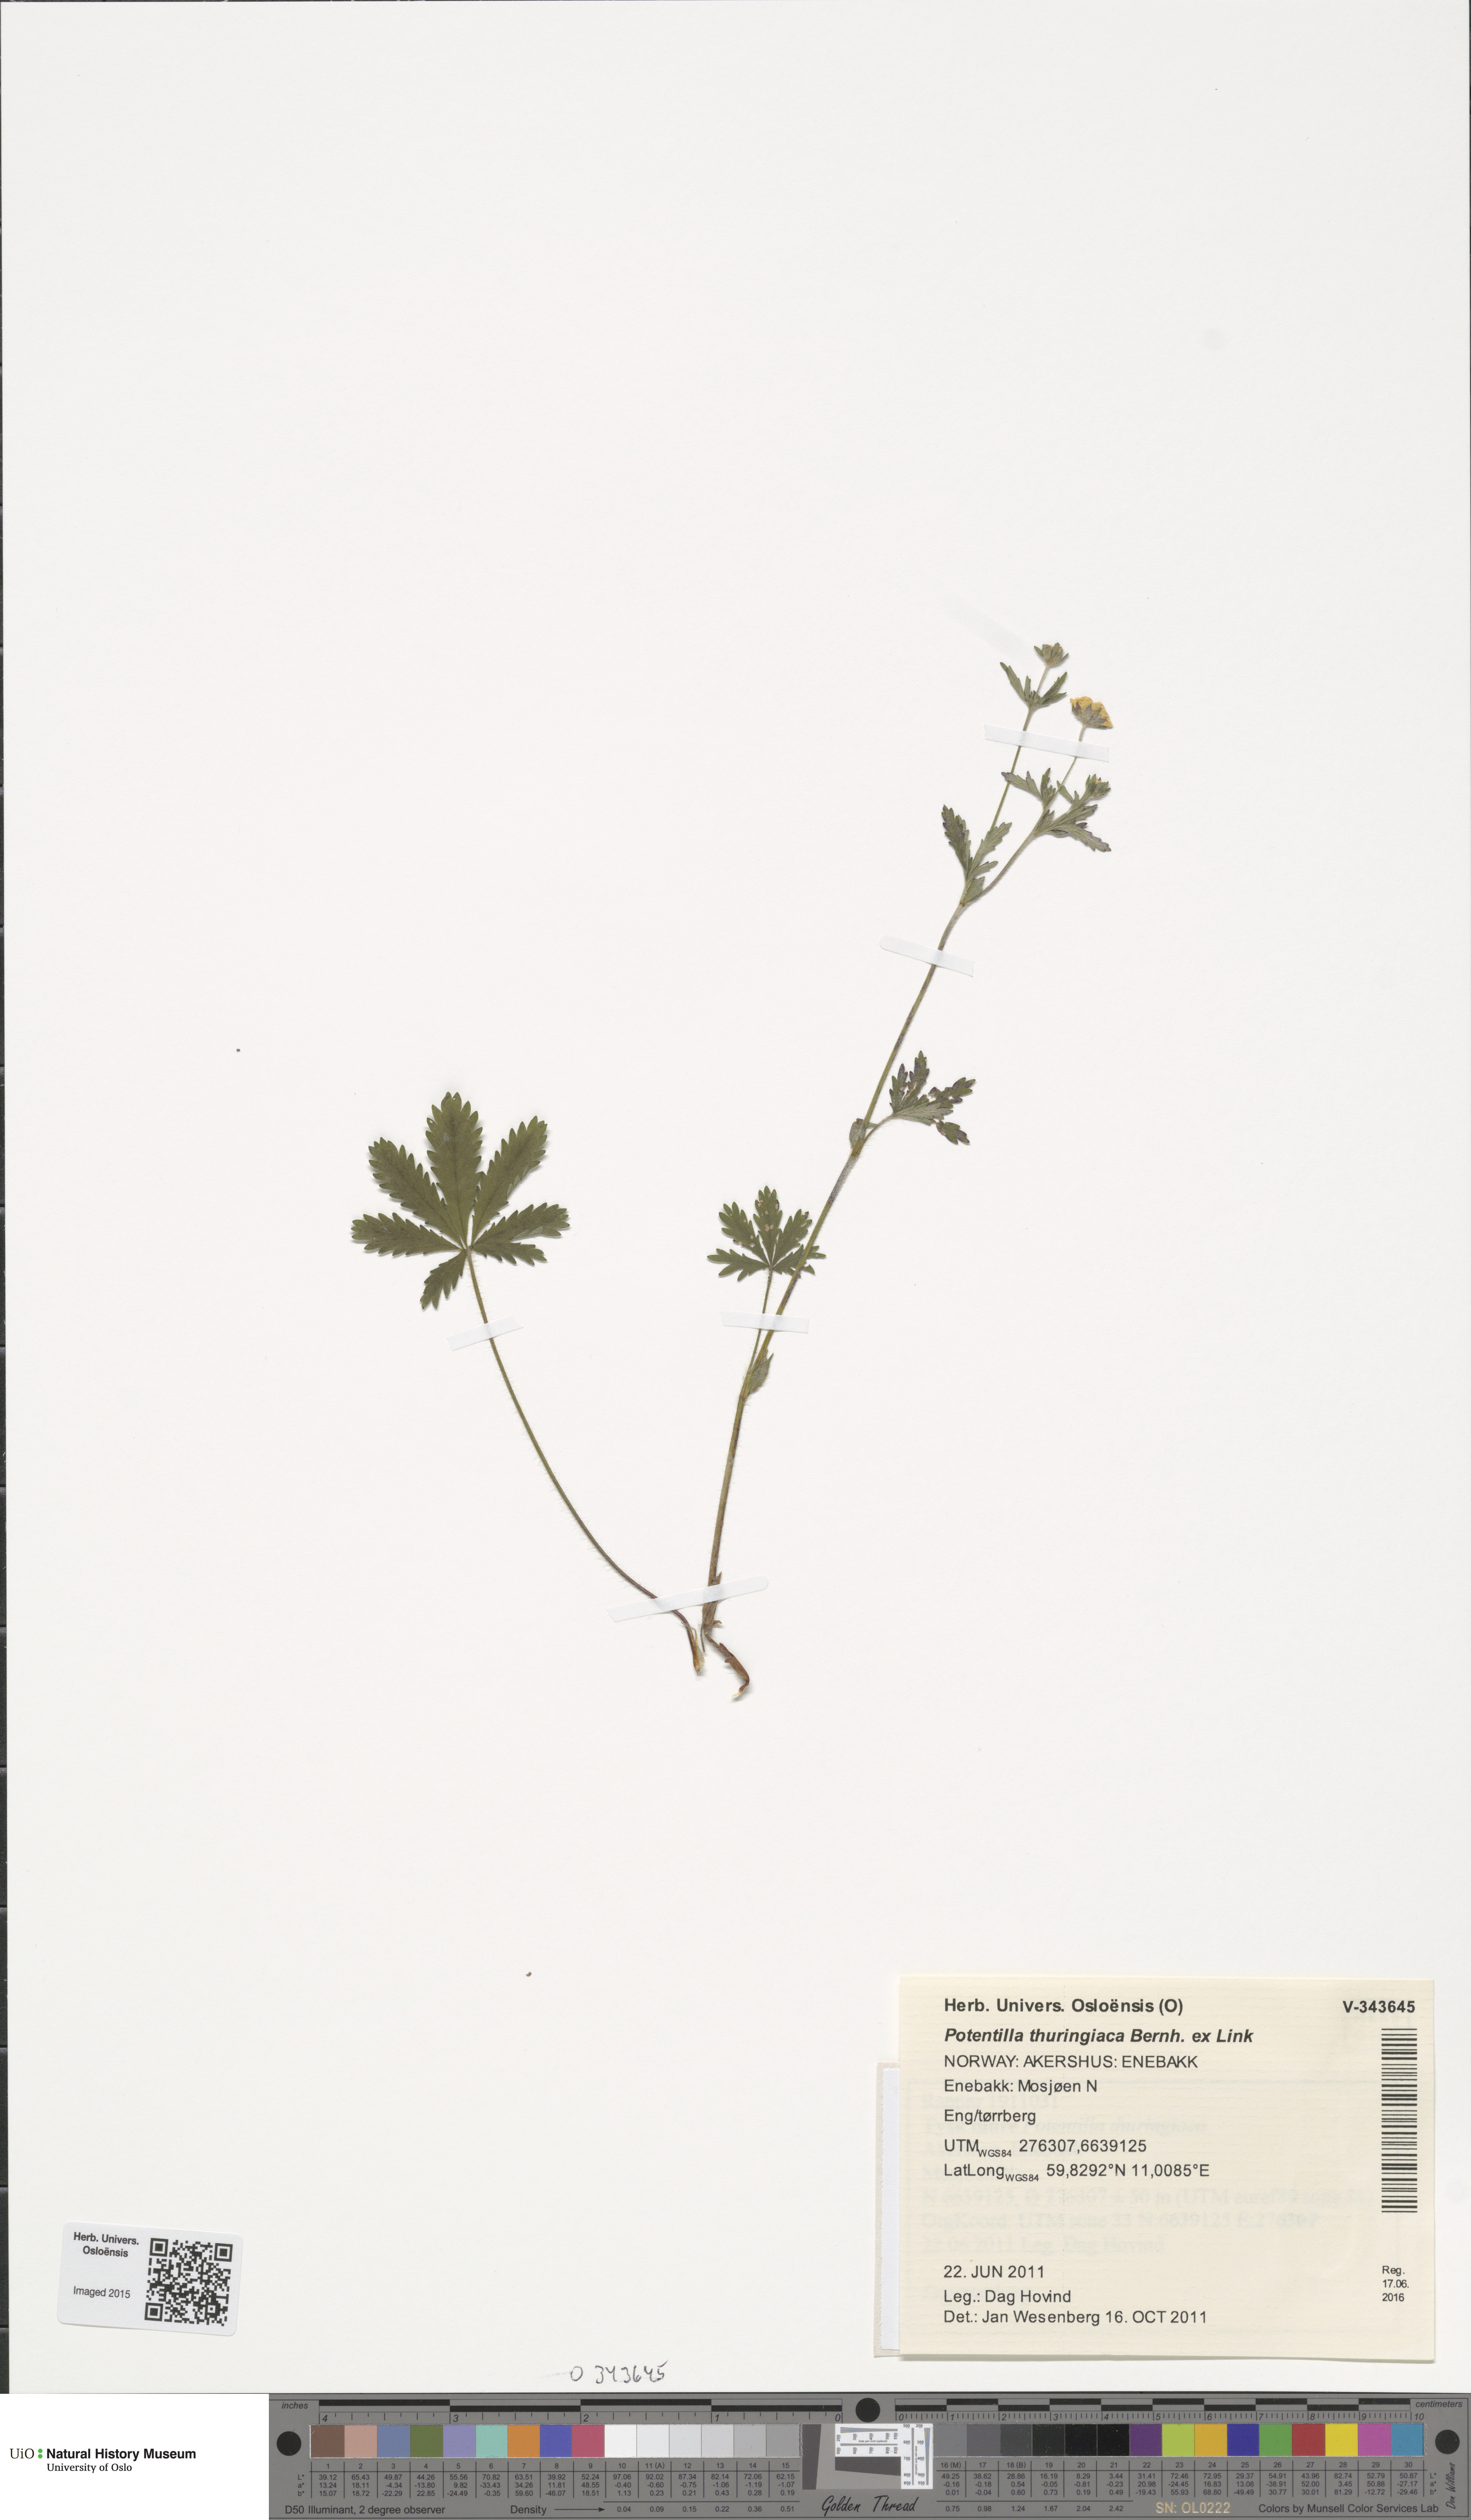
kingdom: Plantae
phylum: Tracheophyta
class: Magnoliopsida
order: Rosales
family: Rosaceae
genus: Potentilla
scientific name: Potentilla thuringiaca
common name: European cinquefoil
